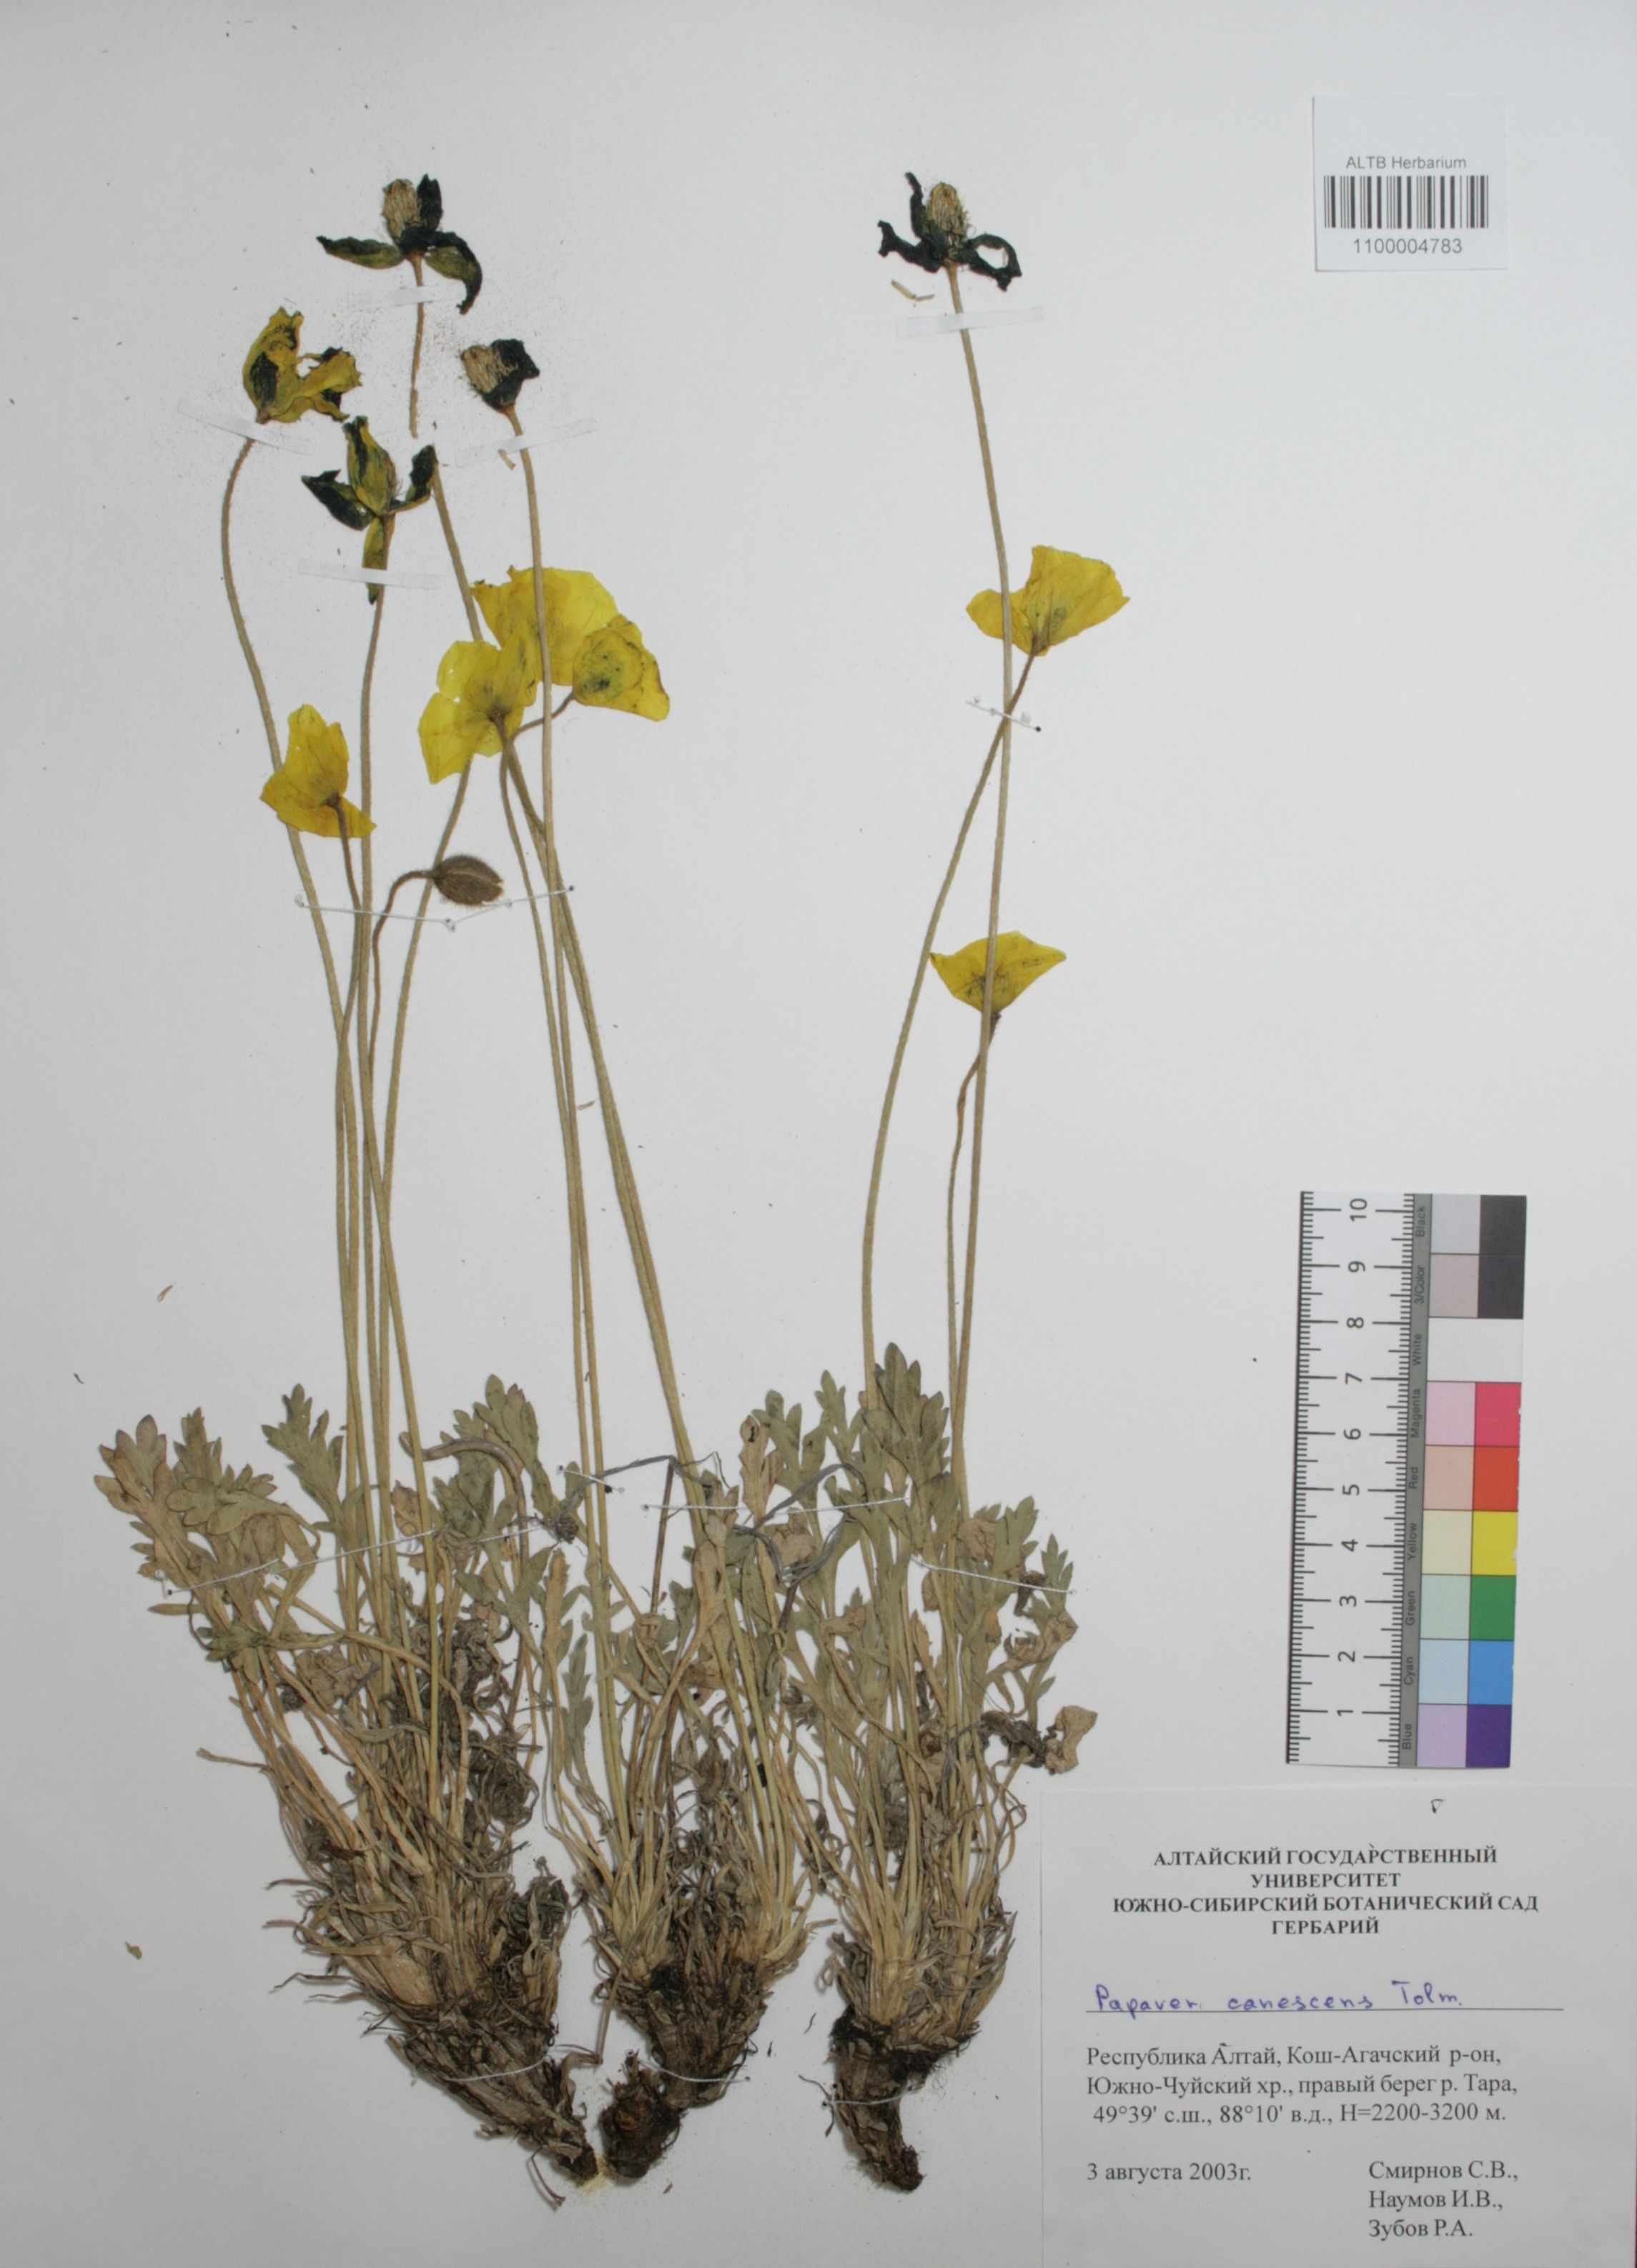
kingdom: Plantae
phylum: Tracheophyta
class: Magnoliopsida
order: Ranunculales
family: Papaveraceae
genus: Papaver
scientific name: Papaver canescens
